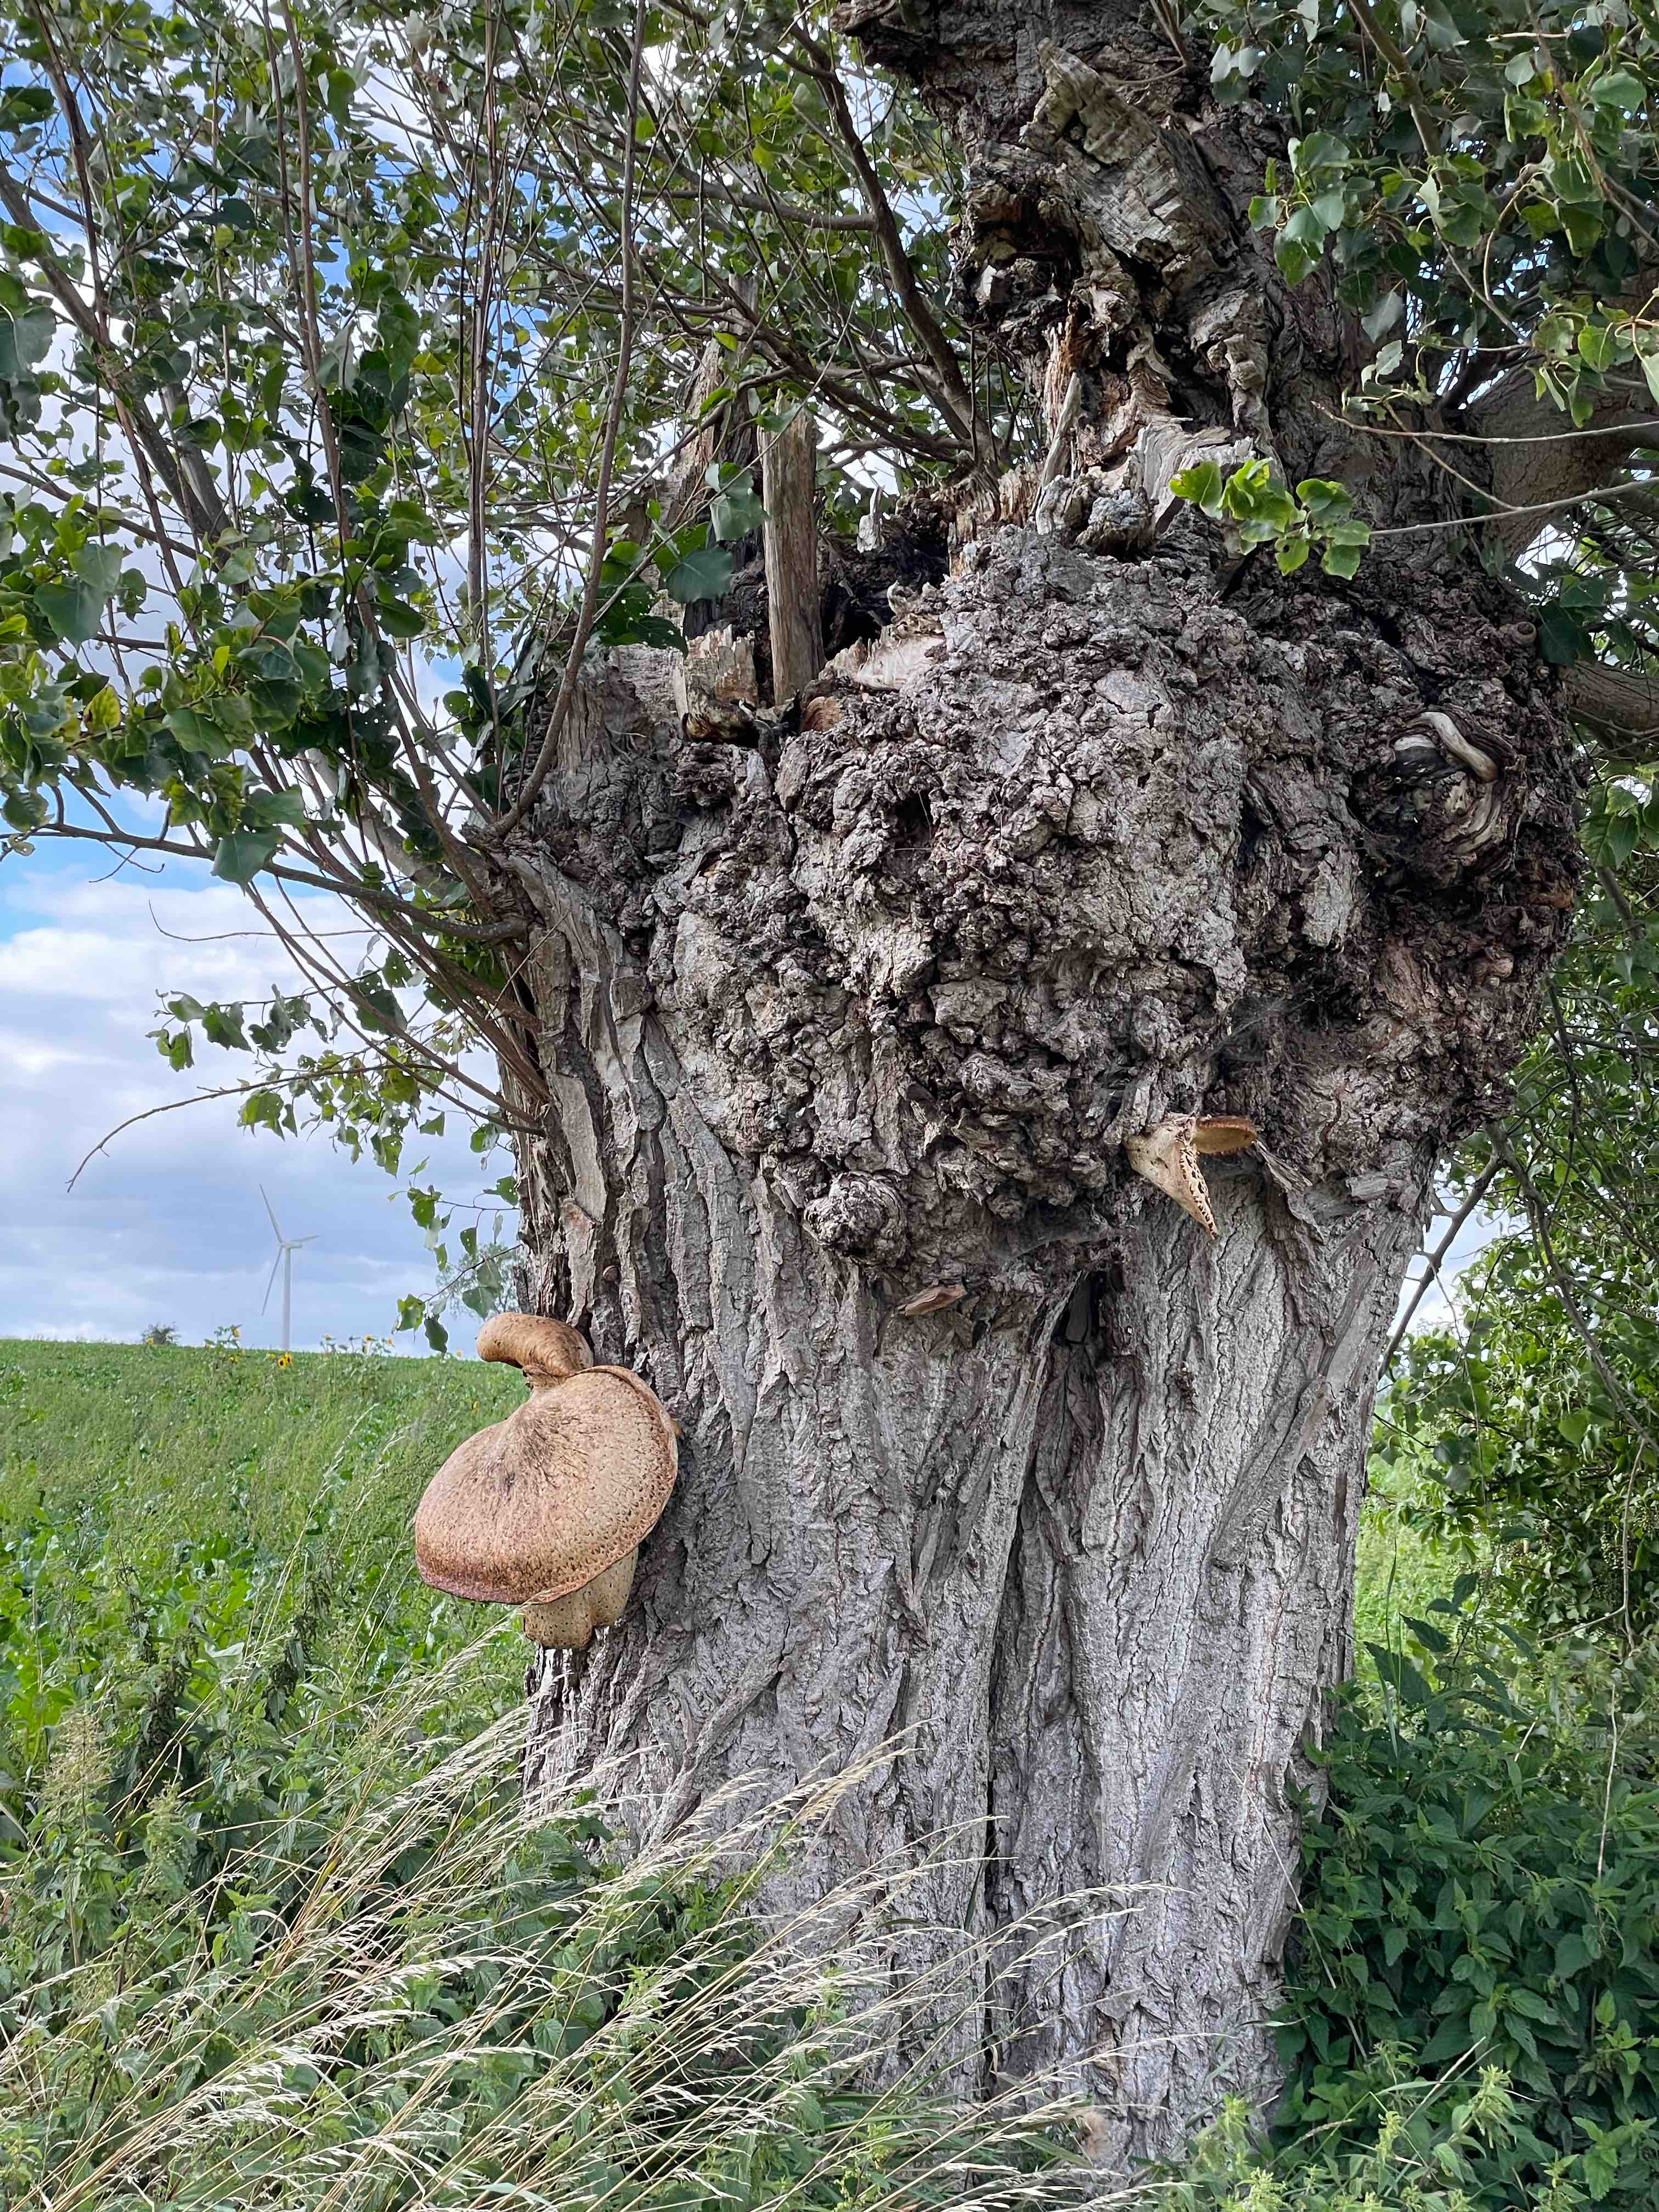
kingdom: Fungi
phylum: Basidiomycota
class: Agaricomycetes
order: Polyporales
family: Polyporaceae
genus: Cerioporus
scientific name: Cerioporus squamosus
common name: skællet stilkporesvamp
